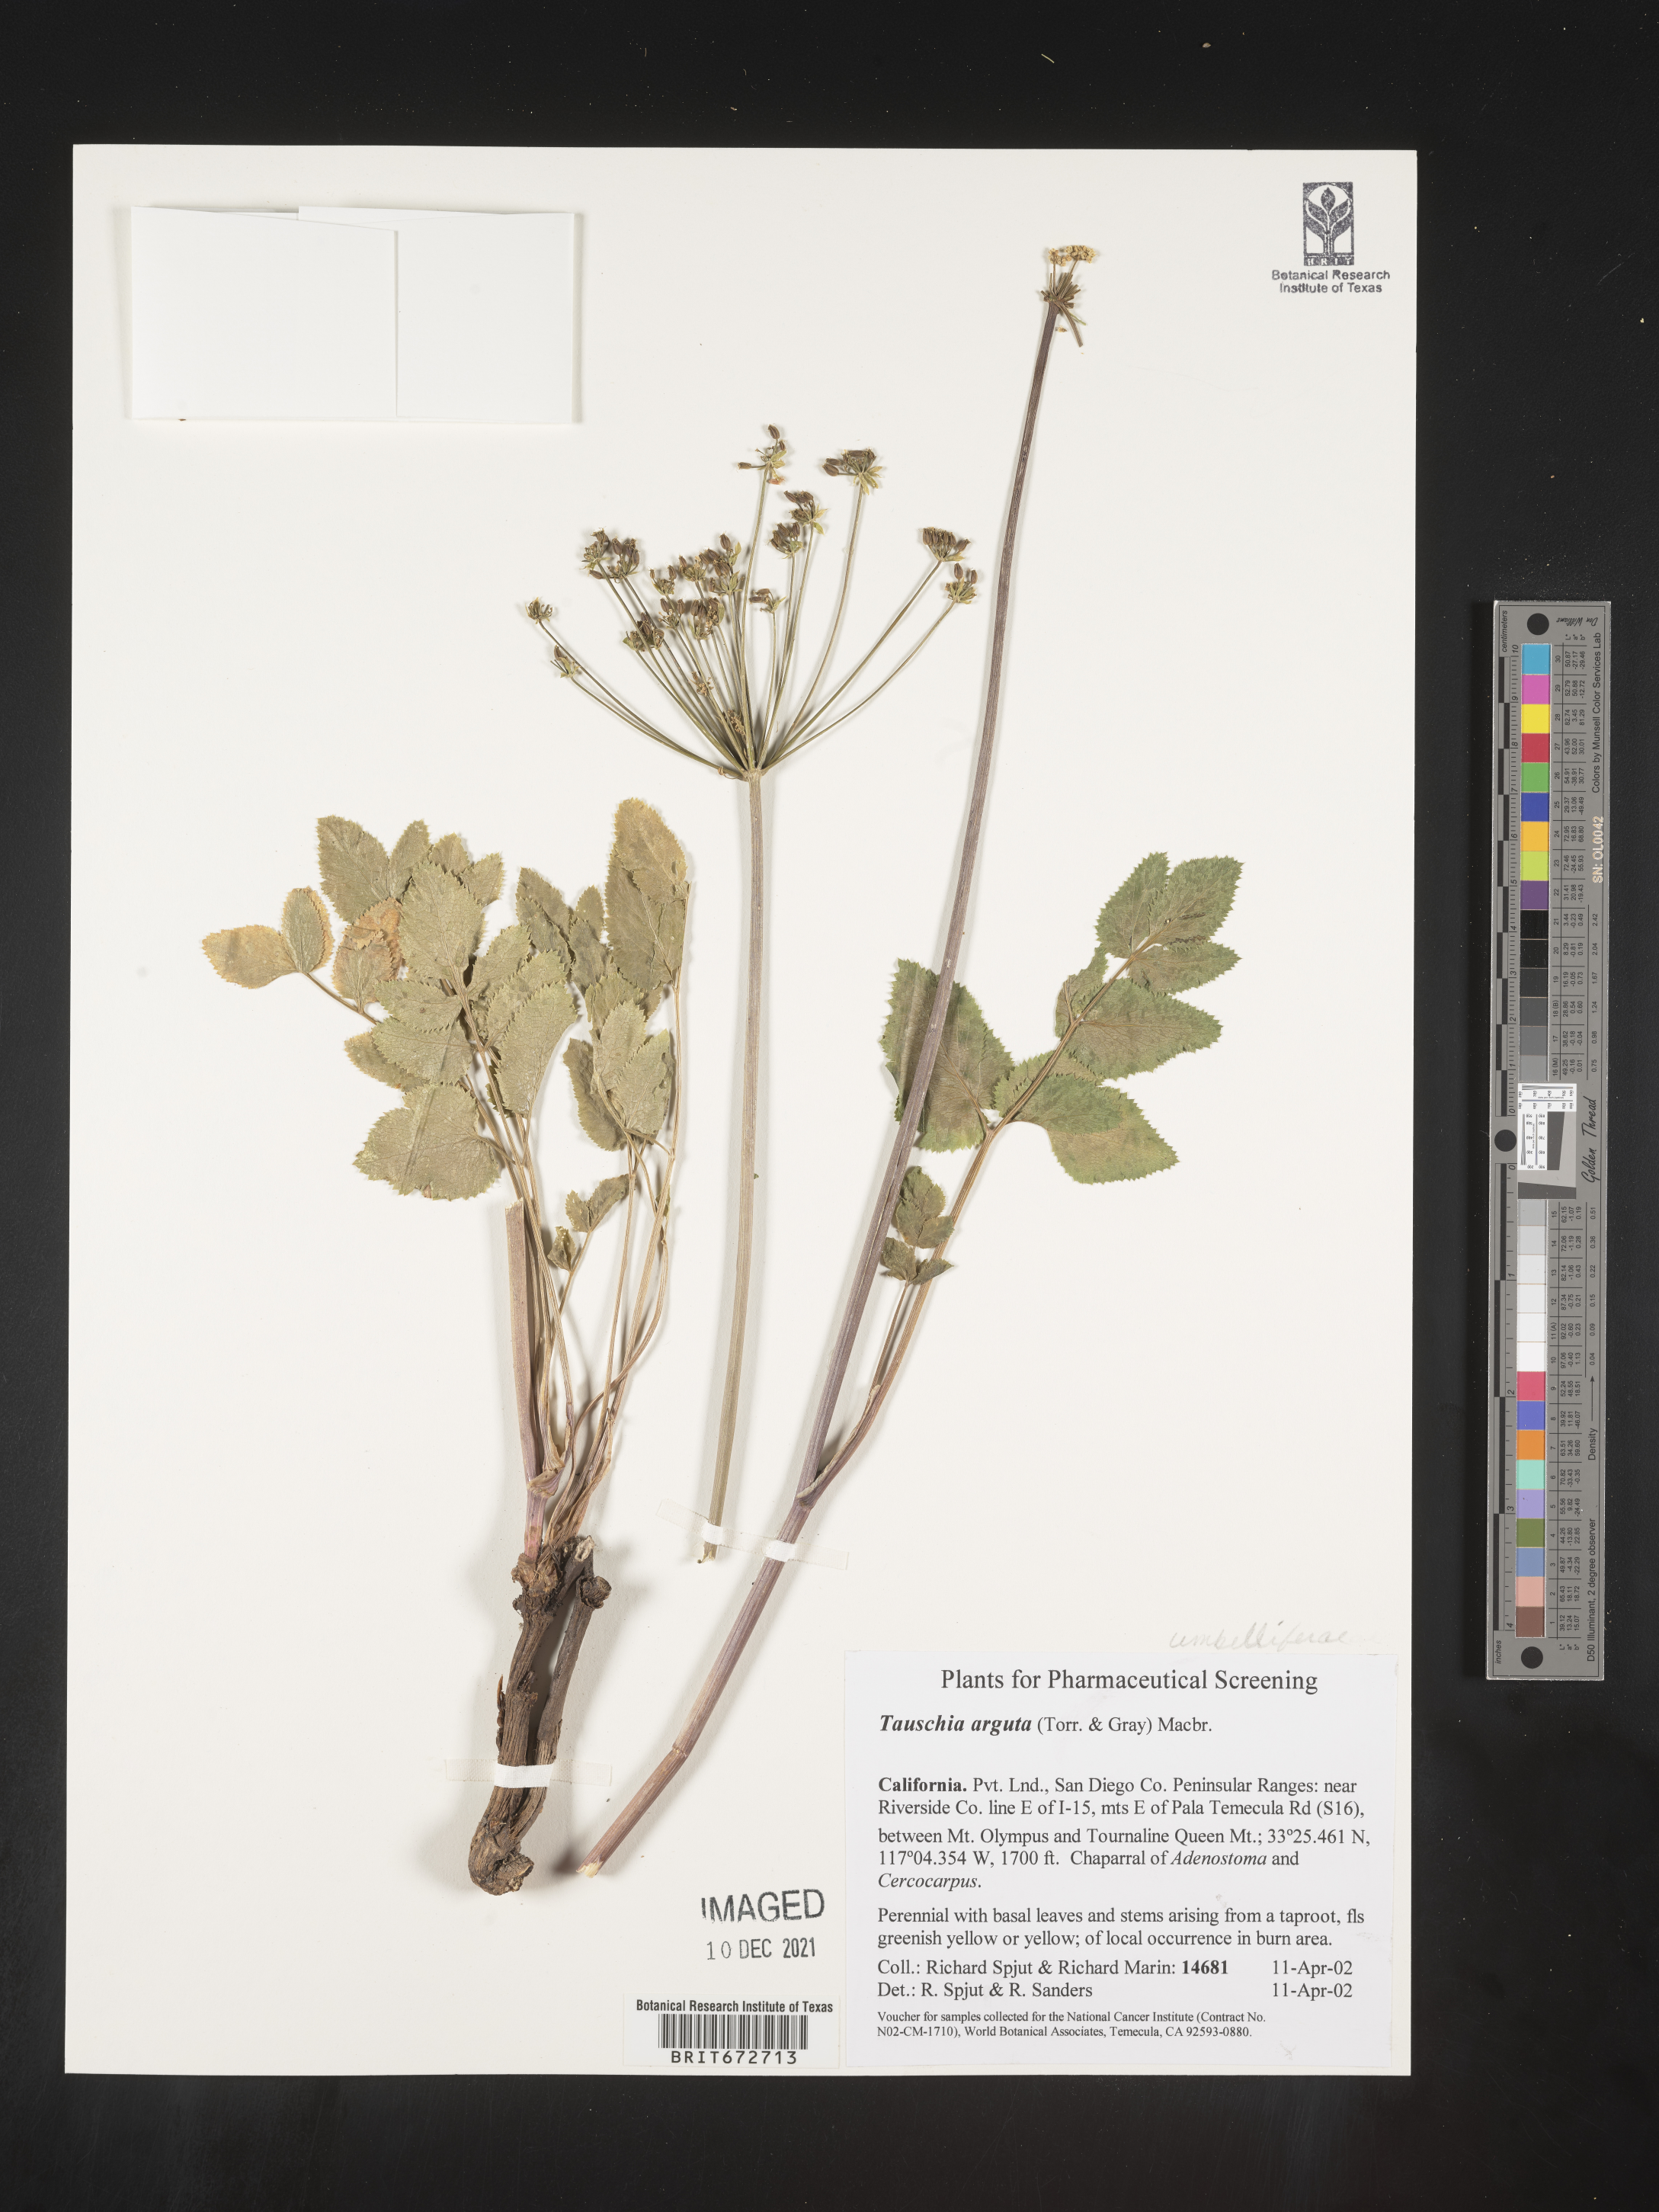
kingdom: Plantae
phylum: Tracheophyta
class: Magnoliopsida
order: Apiales
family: Apiaceae
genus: Tauschia
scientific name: Tauschia
